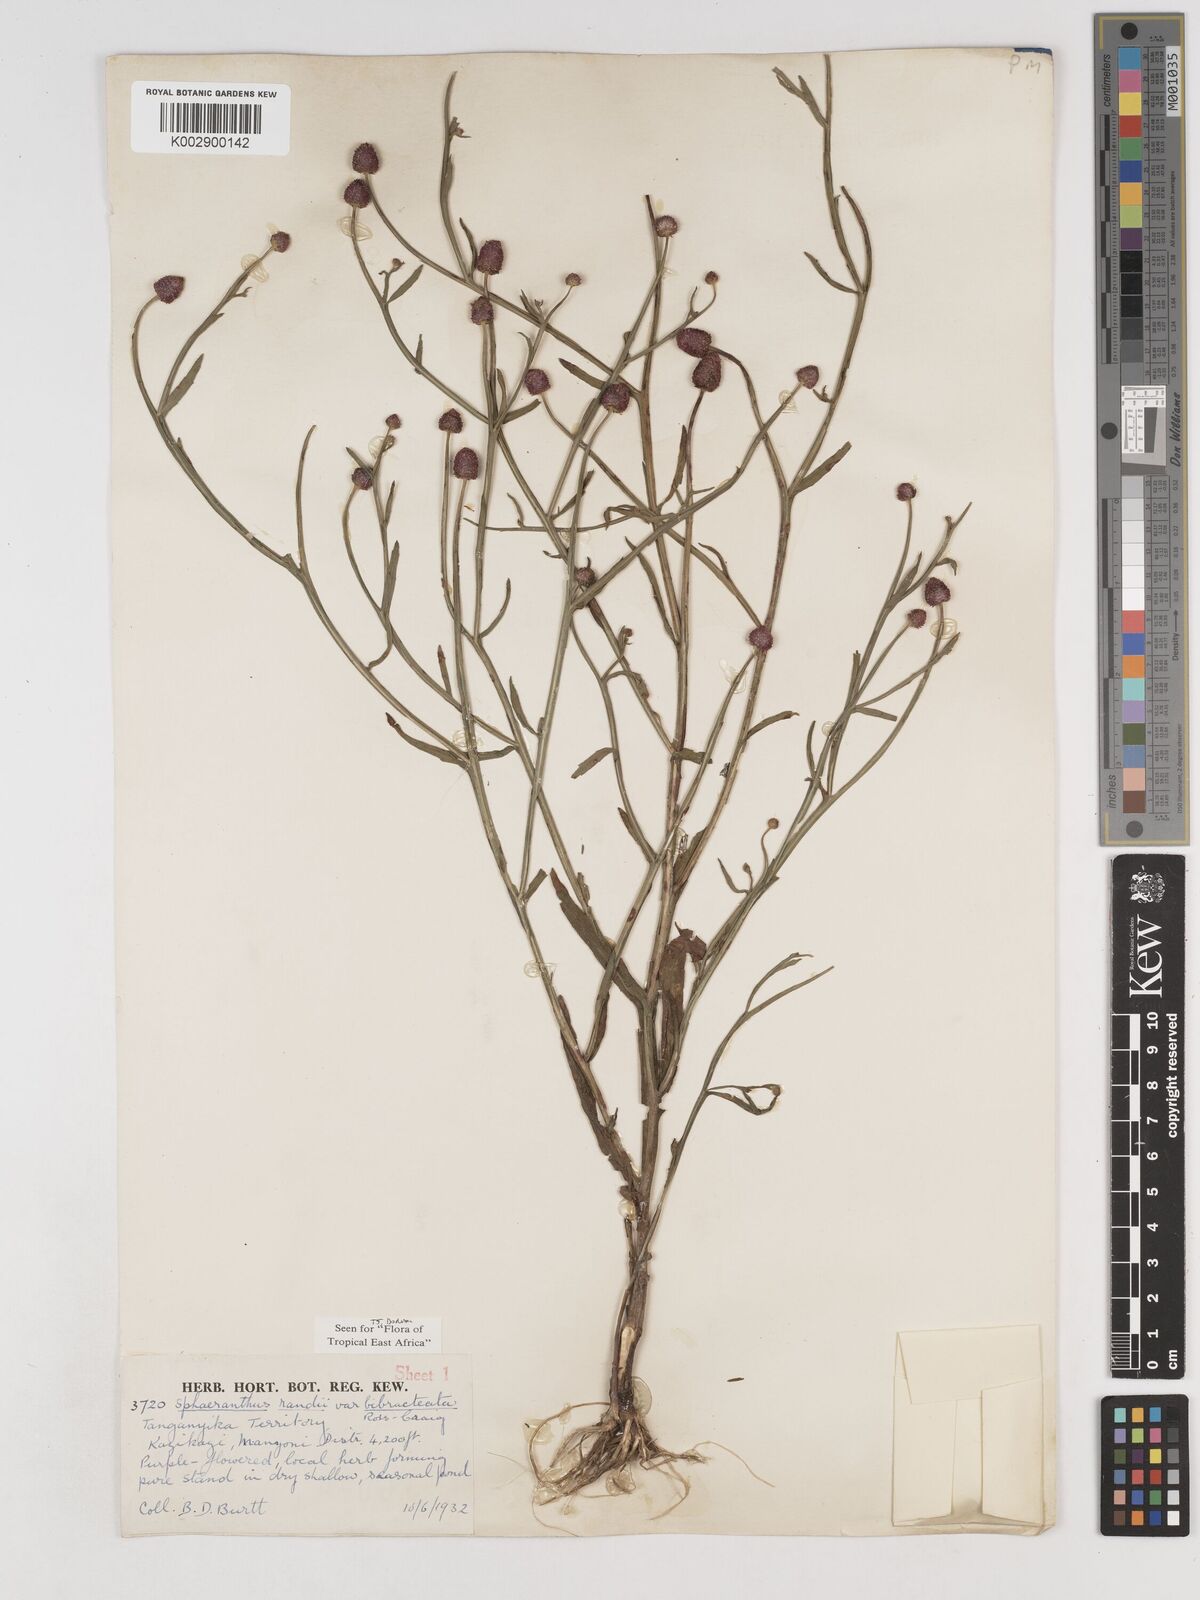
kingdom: Plantae
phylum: Tracheophyta
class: Magnoliopsida
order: Asterales
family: Asteraceae
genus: Sphaeranthus
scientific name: Sphaeranthus randii
